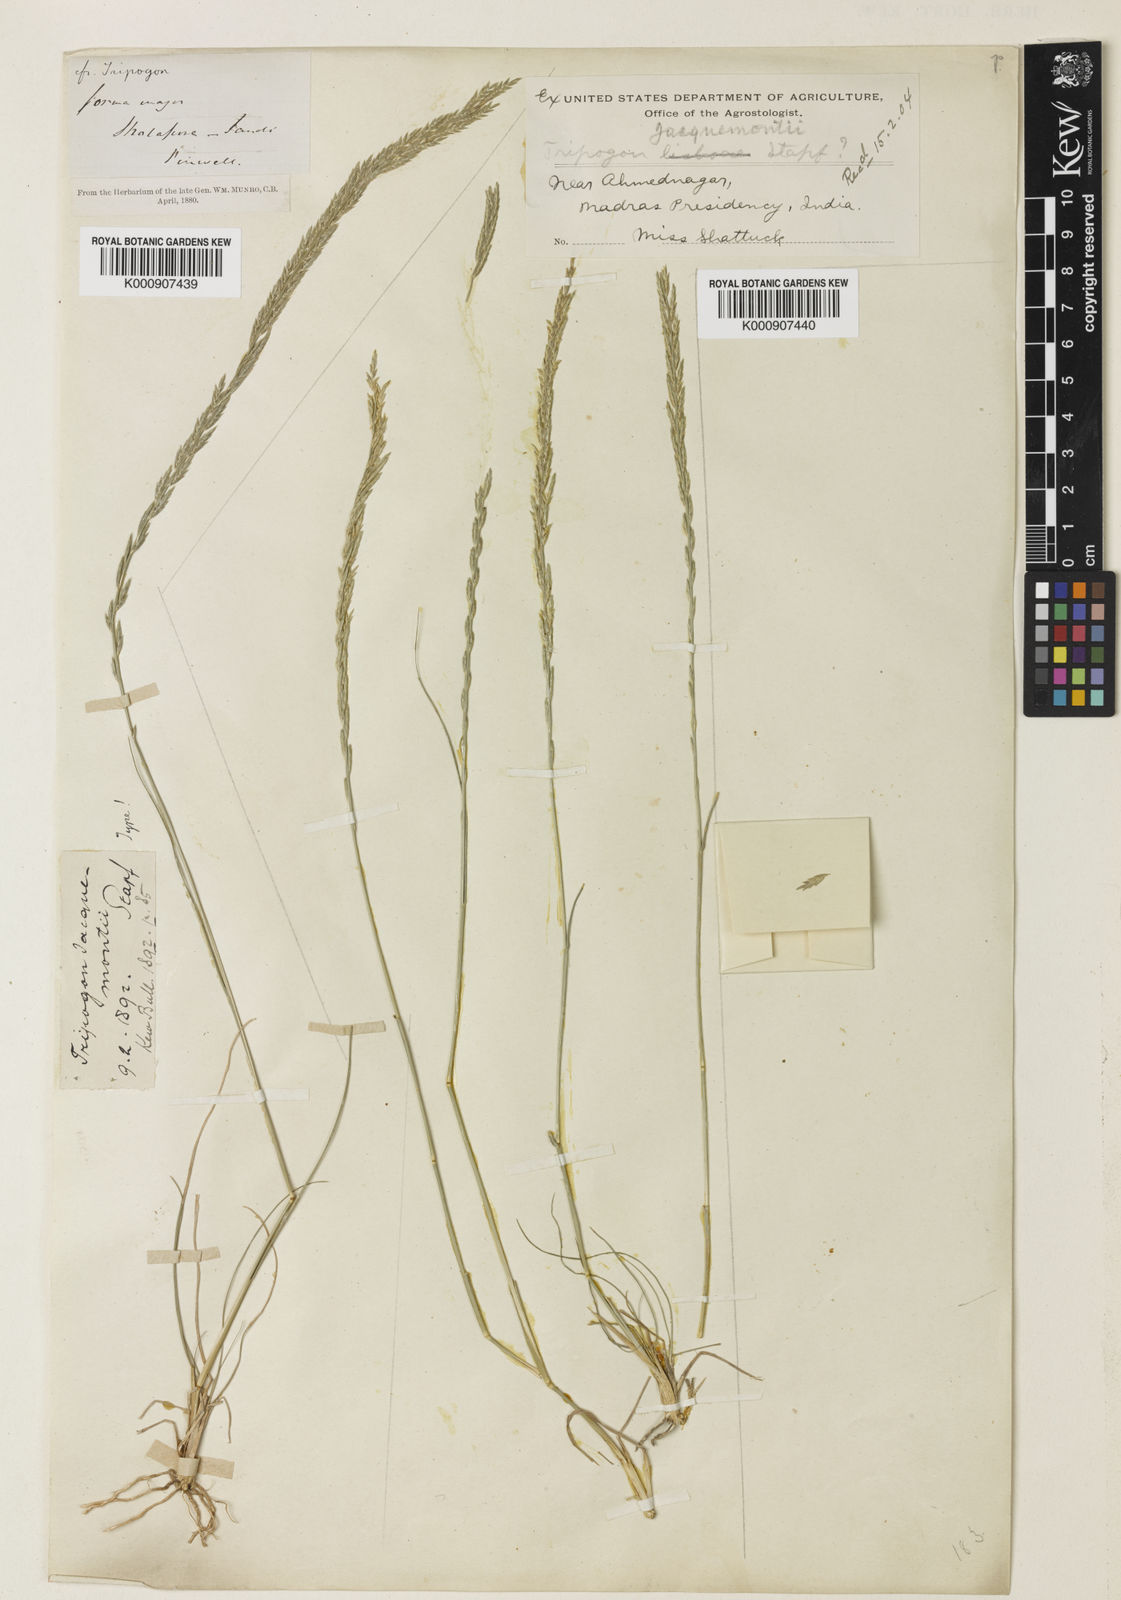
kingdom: Plantae
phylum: Tracheophyta
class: Liliopsida
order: Poales
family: Poaceae
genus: Tripogon
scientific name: Tripogon jacquemontii
